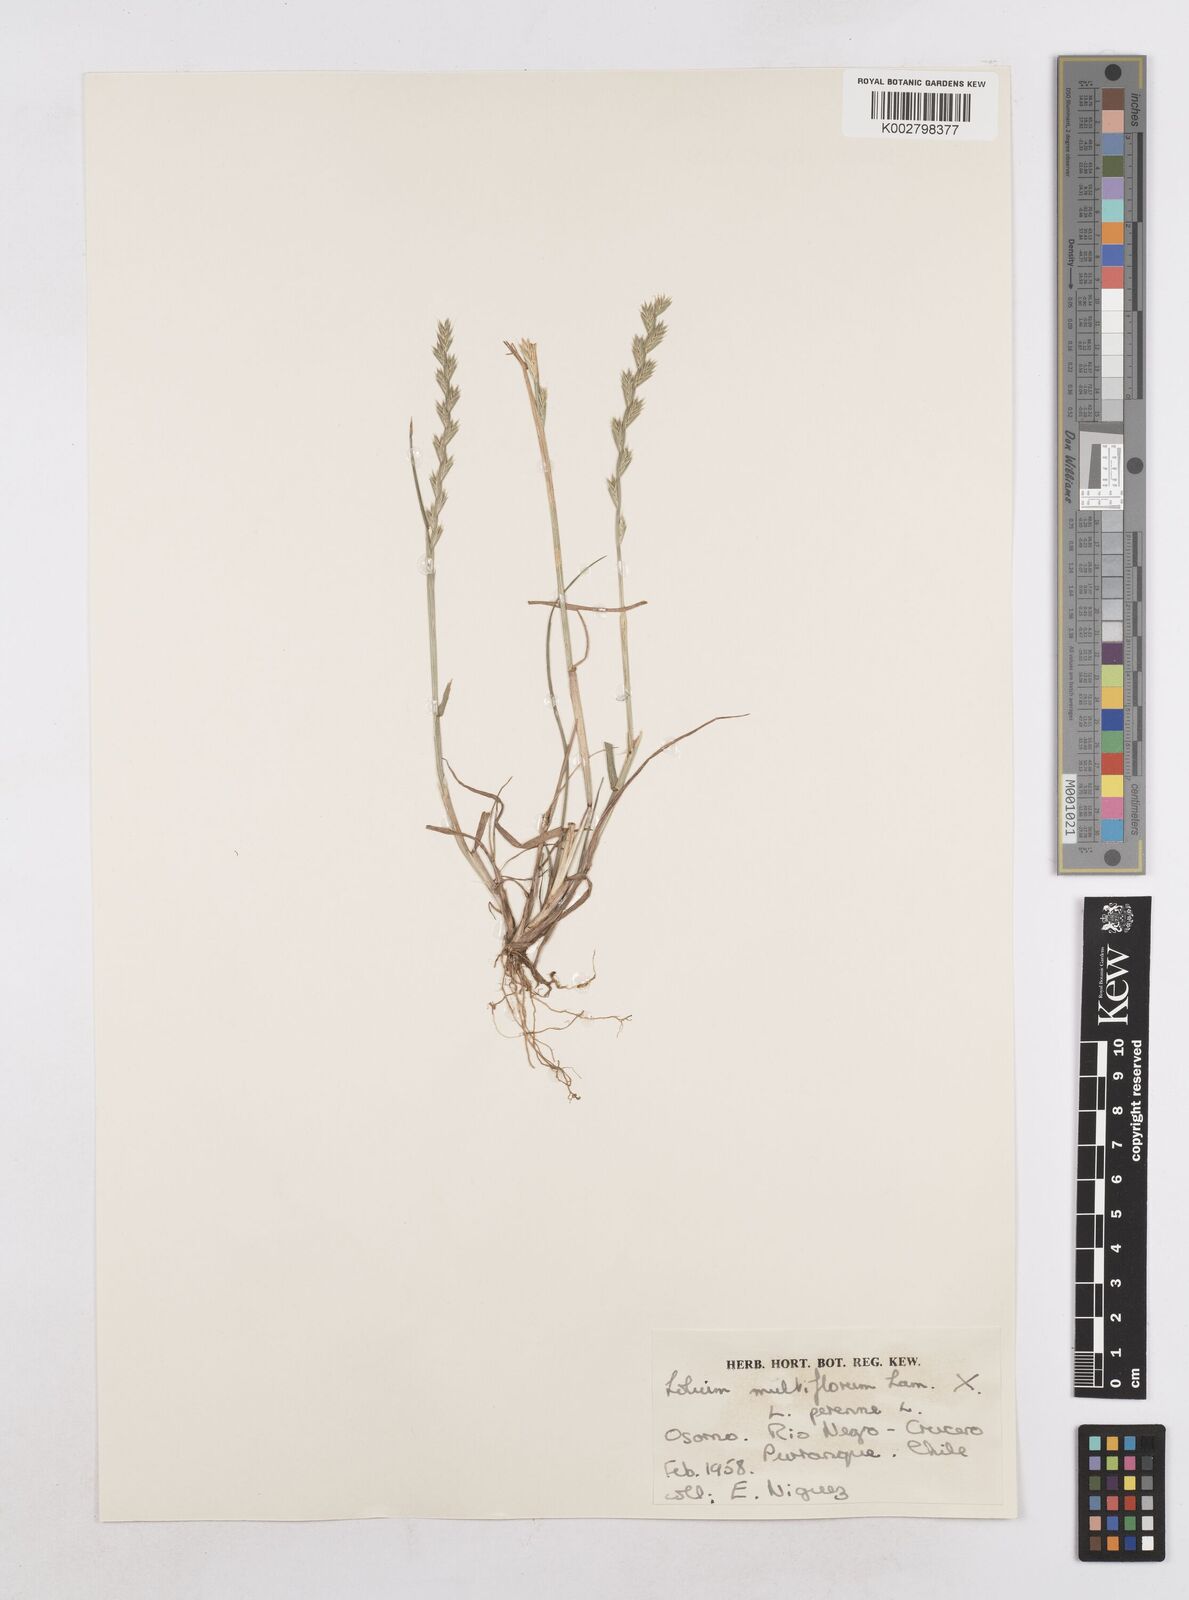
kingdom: Plantae
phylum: Tracheophyta
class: Liliopsida
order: Poales
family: Poaceae
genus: Lolium
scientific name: Lolium multiflorum
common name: Annual ryegrass
